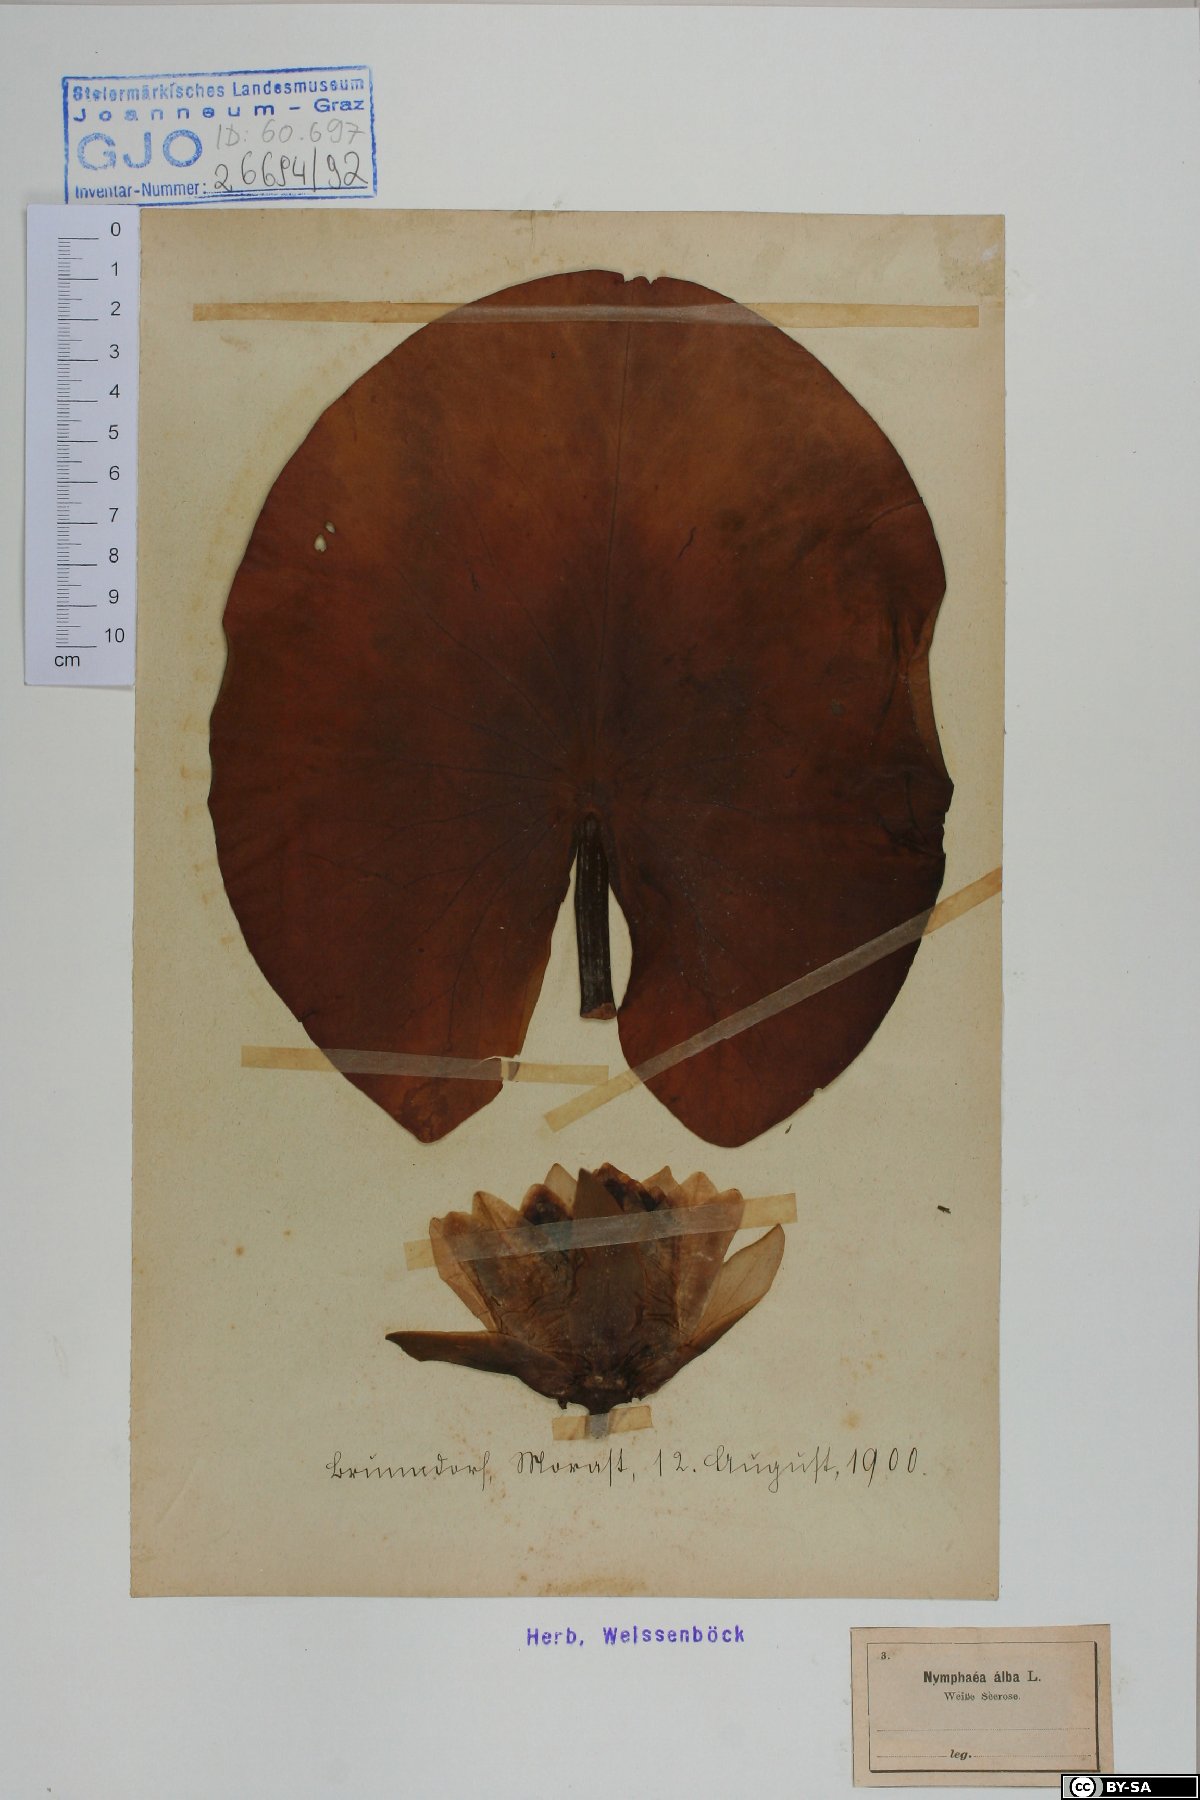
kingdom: Plantae
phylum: Tracheophyta
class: Magnoliopsida
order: Nymphaeales
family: Nymphaeaceae
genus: Nymphaea
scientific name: Nymphaea alba
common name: White water-lily
